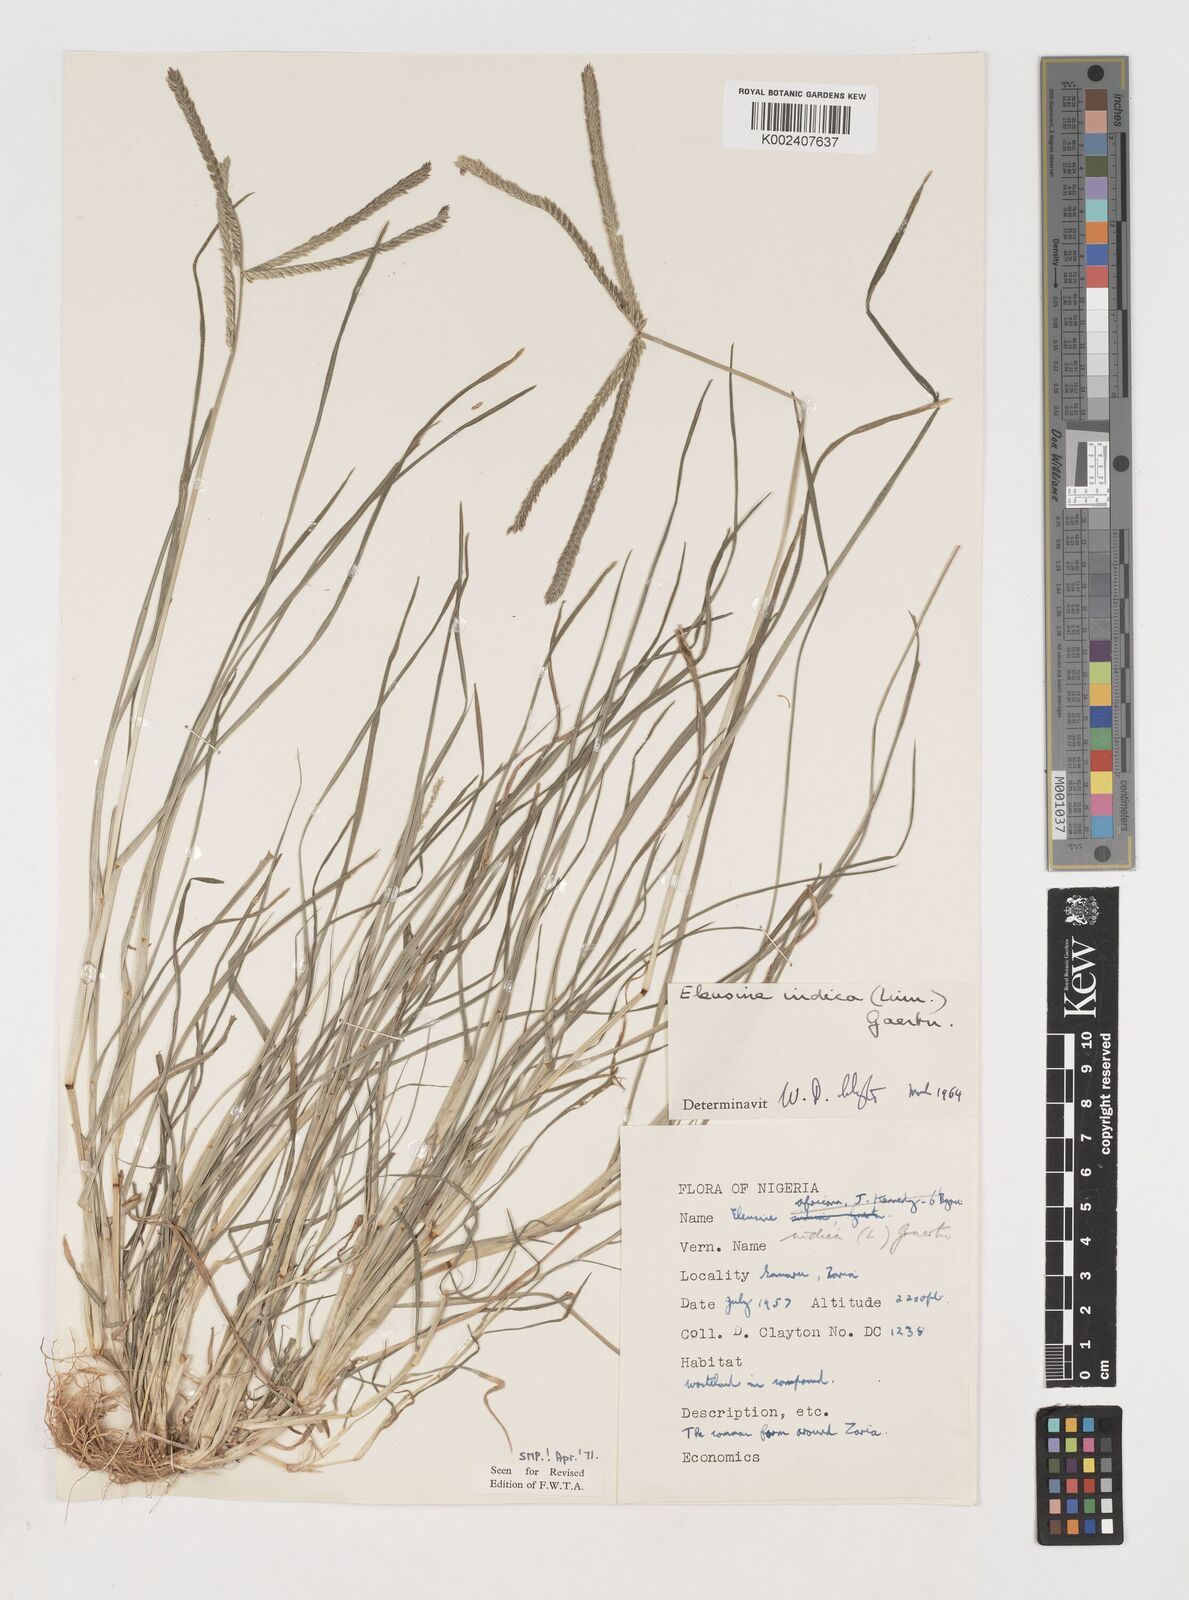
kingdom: Plantae
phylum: Tracheophyta
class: Liliopsida
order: Poales
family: Poaceae
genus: Eleusine
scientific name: Eleusine indica
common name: Yard-grass
